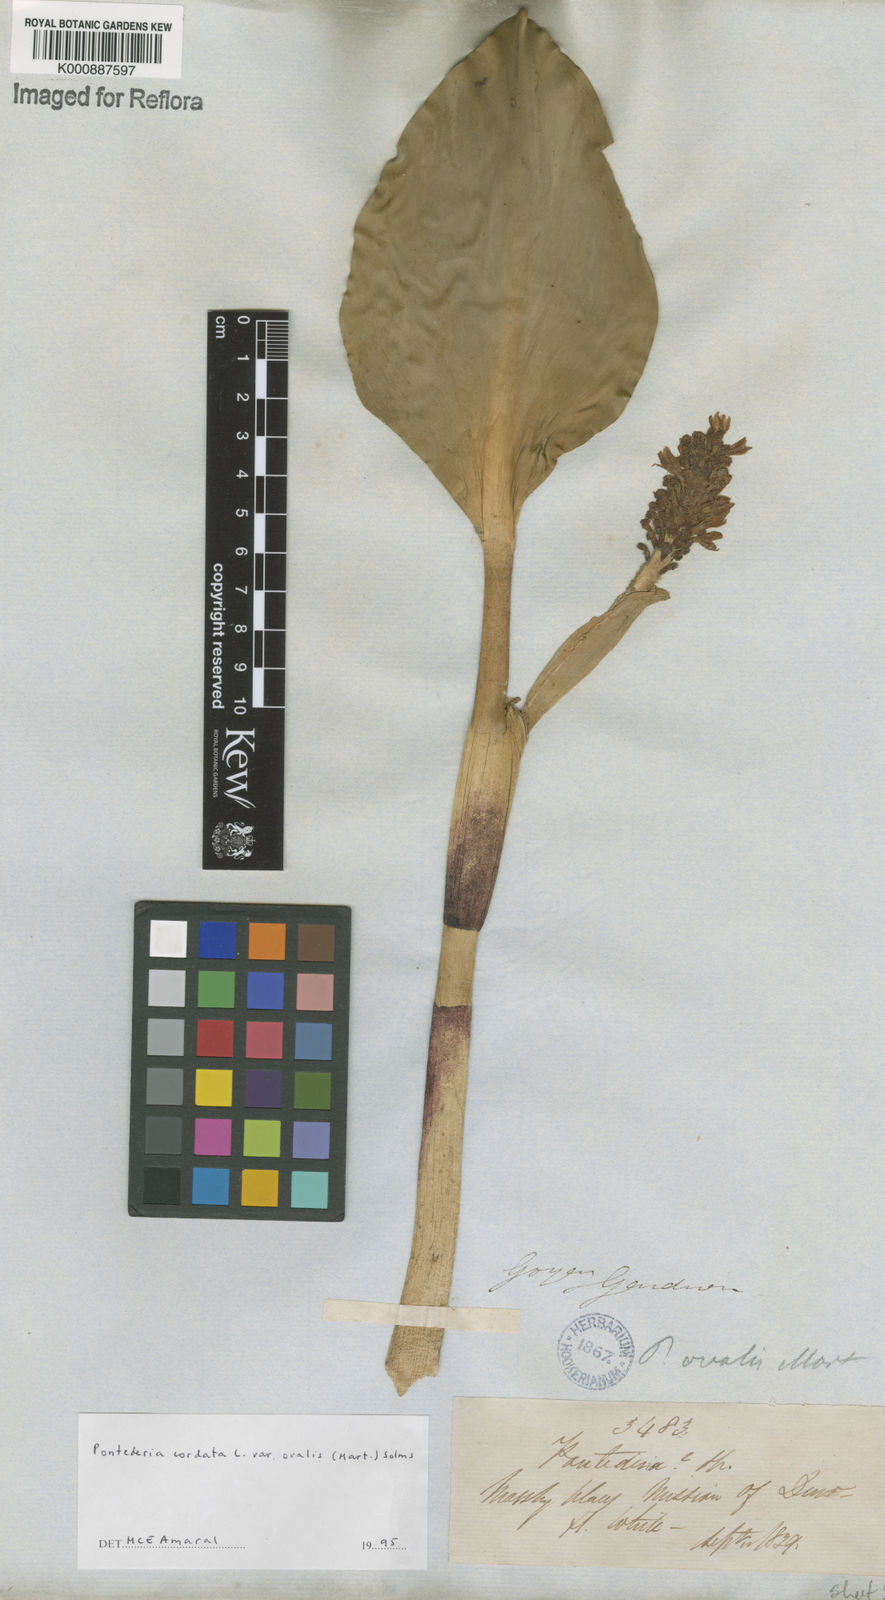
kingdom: Plantae
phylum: Tracheophyta
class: Liliopsida
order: Commelinales
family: Pontederiaceae
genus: Pontederia
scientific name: Pontederia cordata
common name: Pickerelweed
